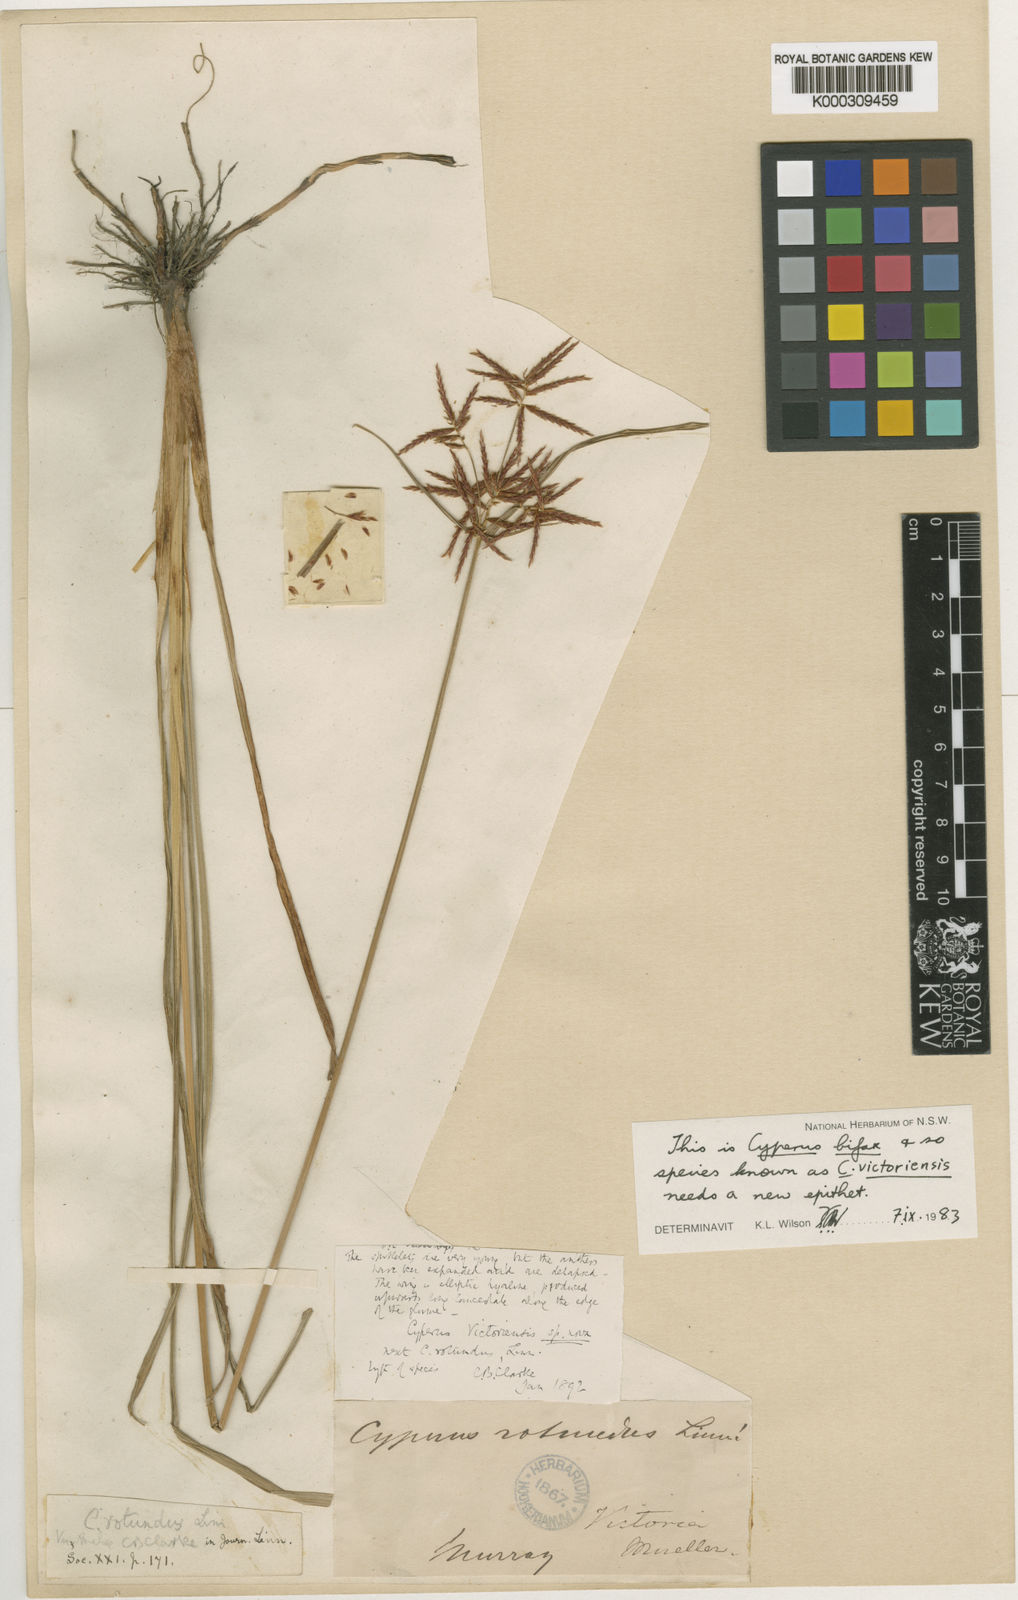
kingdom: Plantae
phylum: Tracheophyta
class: Liliopsida
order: Poales
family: Cyperaceae
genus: Cyperus
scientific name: Cyperus victoriensis
